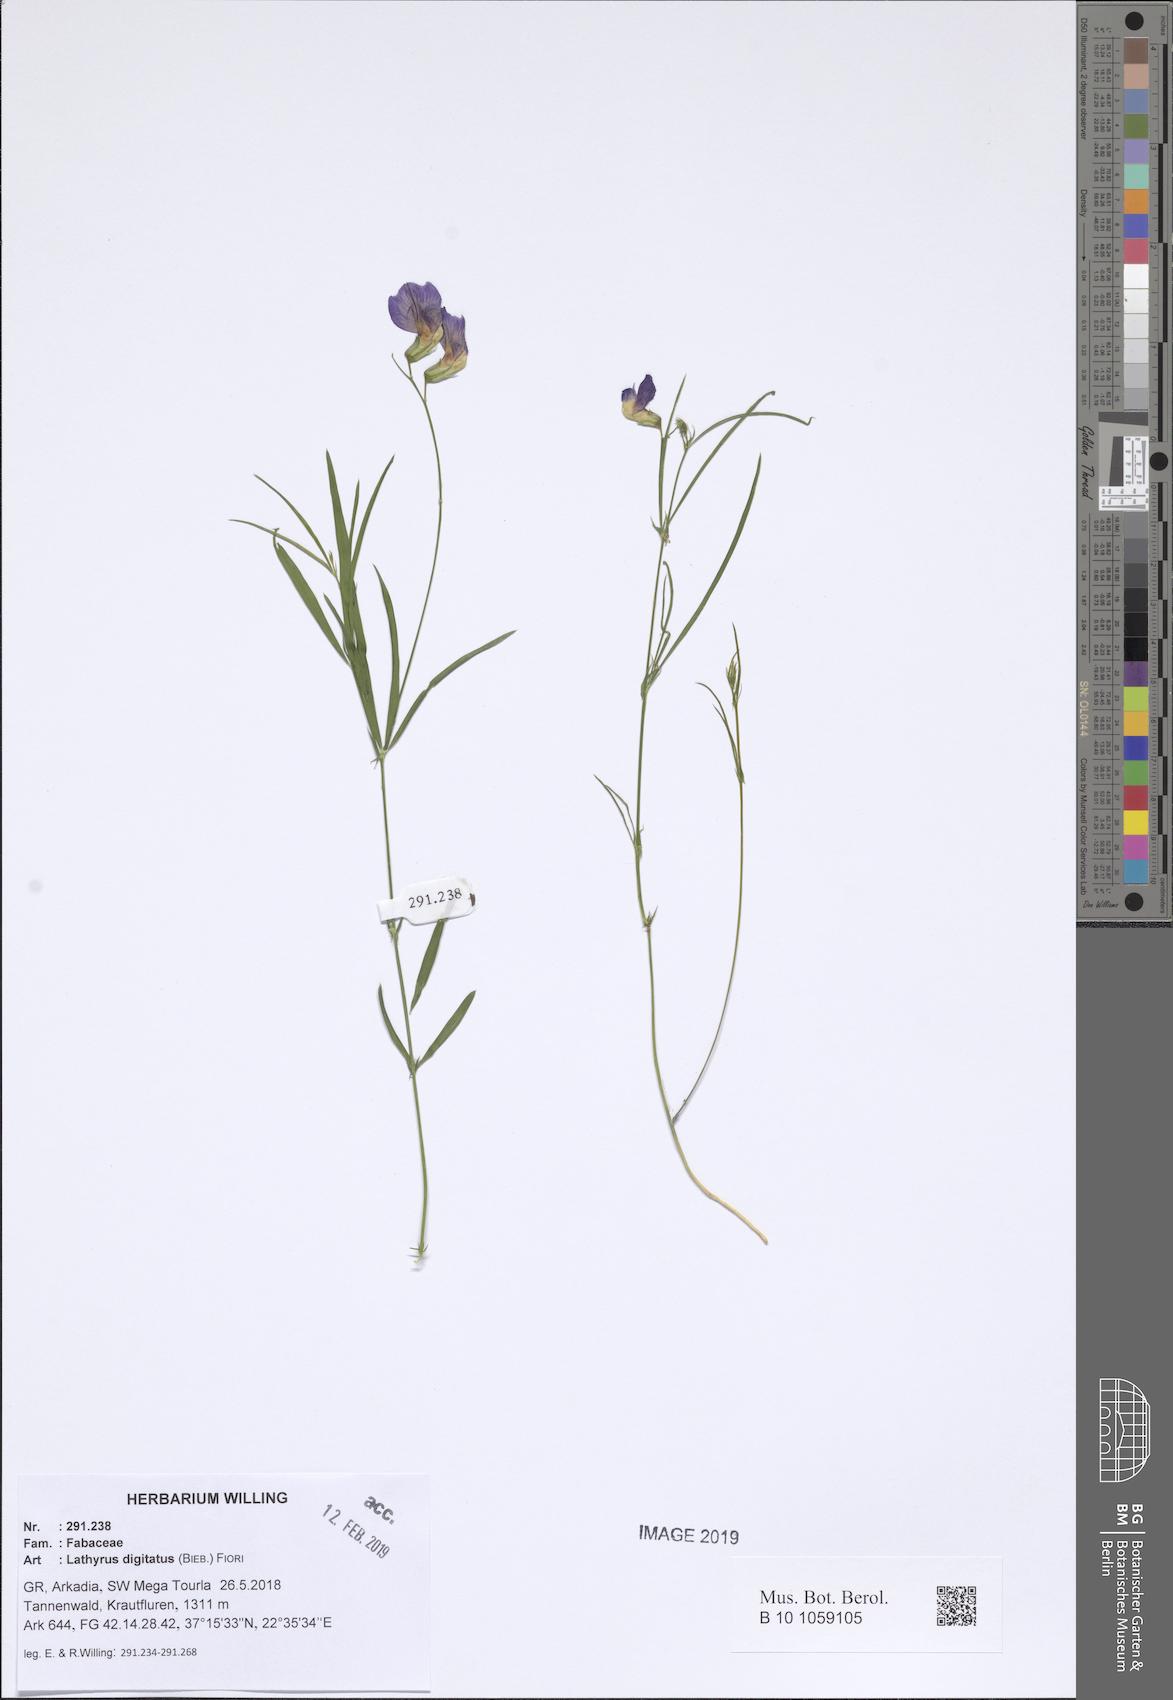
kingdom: Plantae
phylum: Tracheophyta
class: Magnoliopsida
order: Fabales
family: Fabaceae
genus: Lathyrus
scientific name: Lathyrus digitatus
